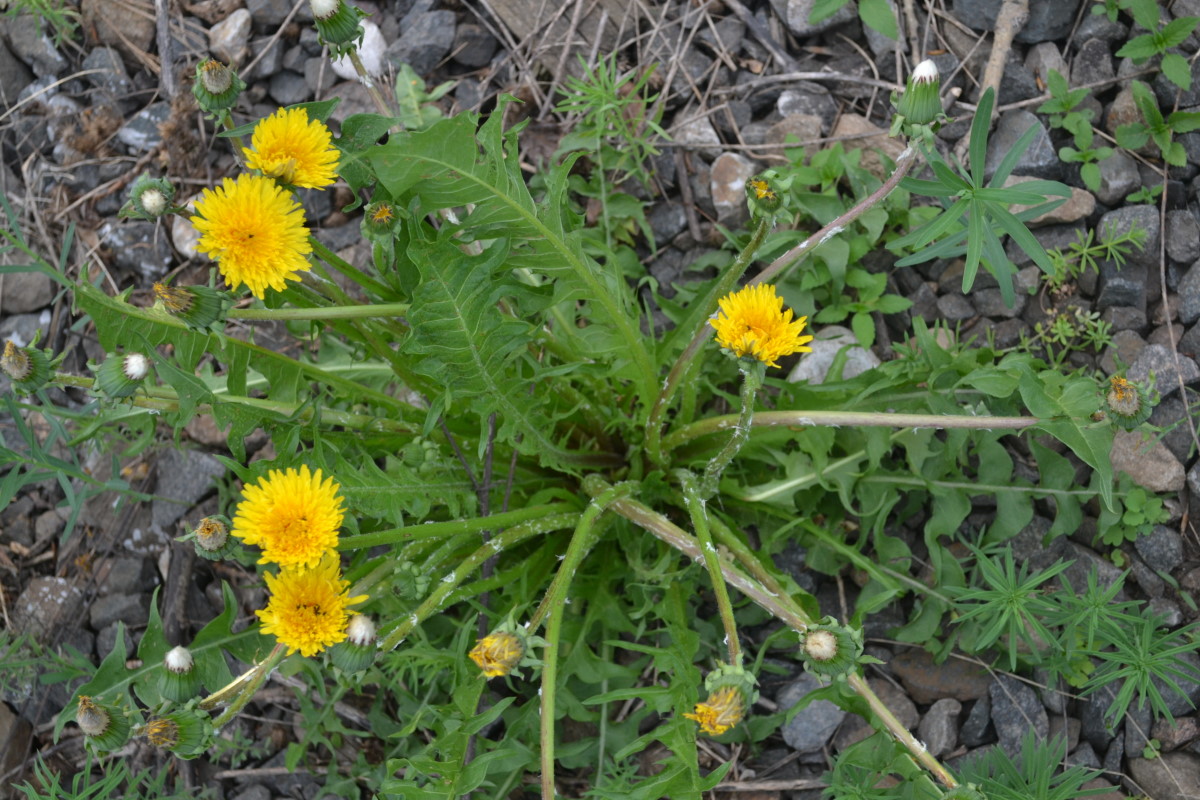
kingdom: Plantae
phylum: Tracheophyta
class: Magnoliopsida
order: Asterales
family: Asteraceae
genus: Taraxacum
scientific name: Taraxacum officinale
